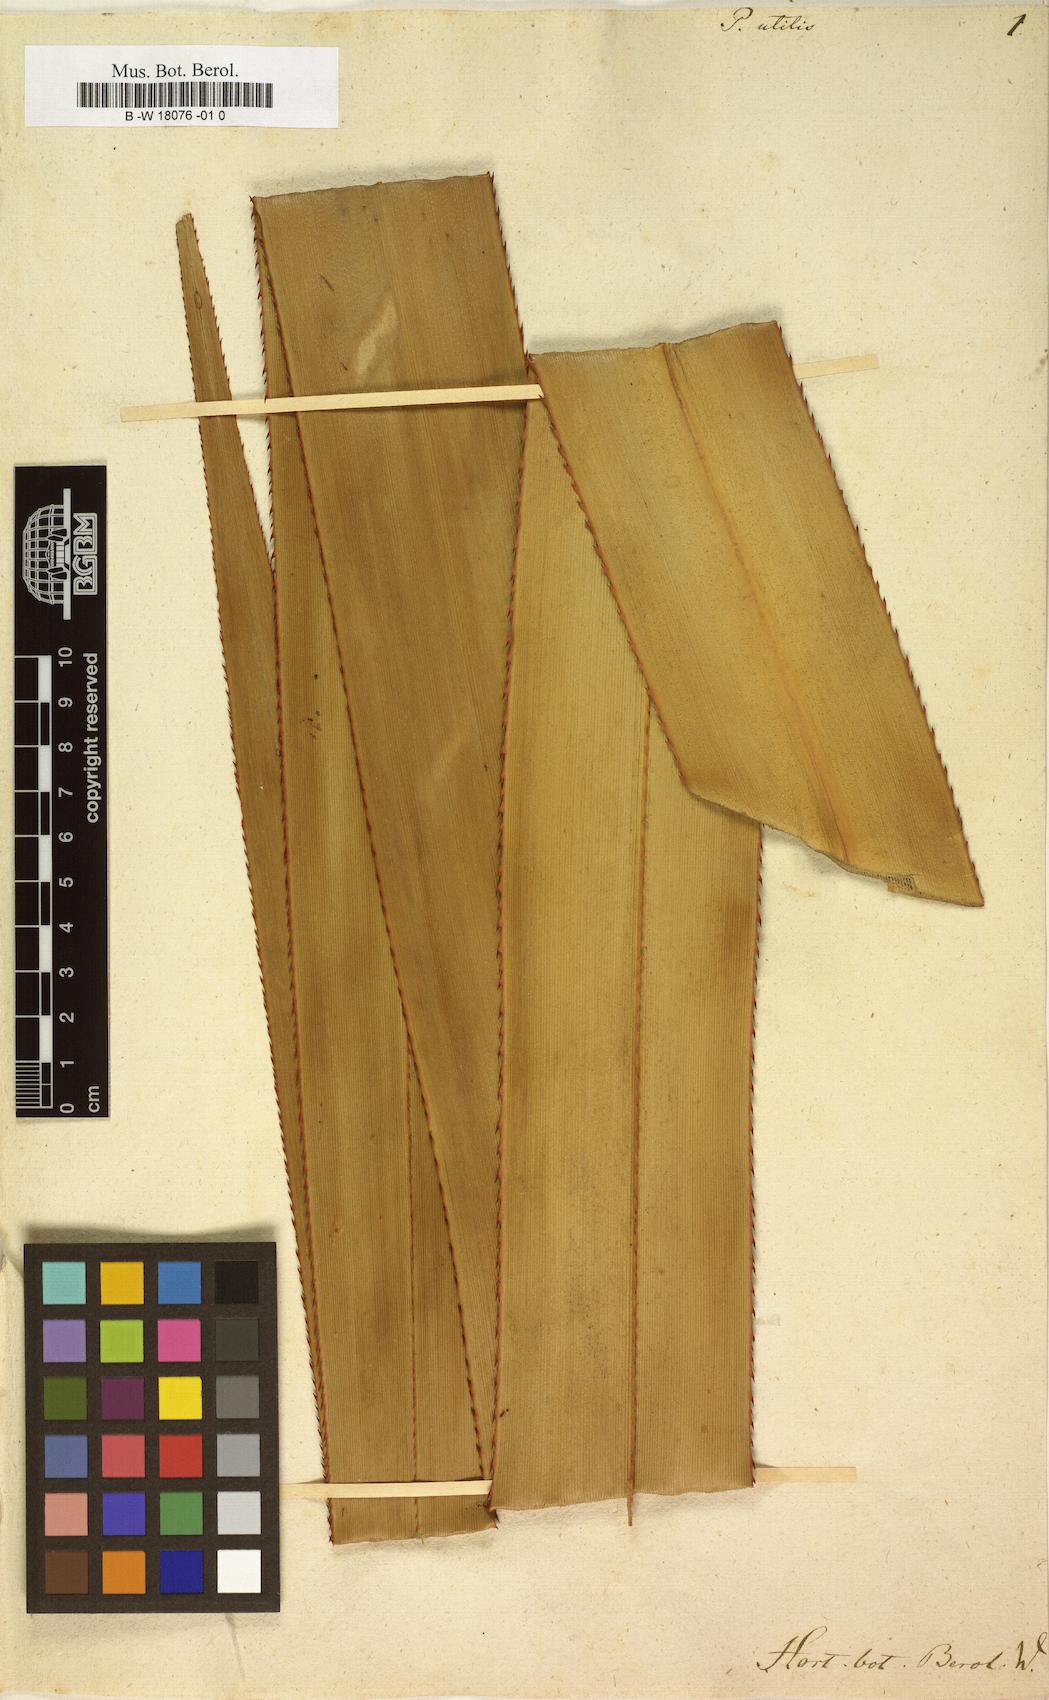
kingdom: Plantae
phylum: Tracheophyta
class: Liliopsida
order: Pandanales
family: Pandanaceae
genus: Pandanus
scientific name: Pandanus utilis
